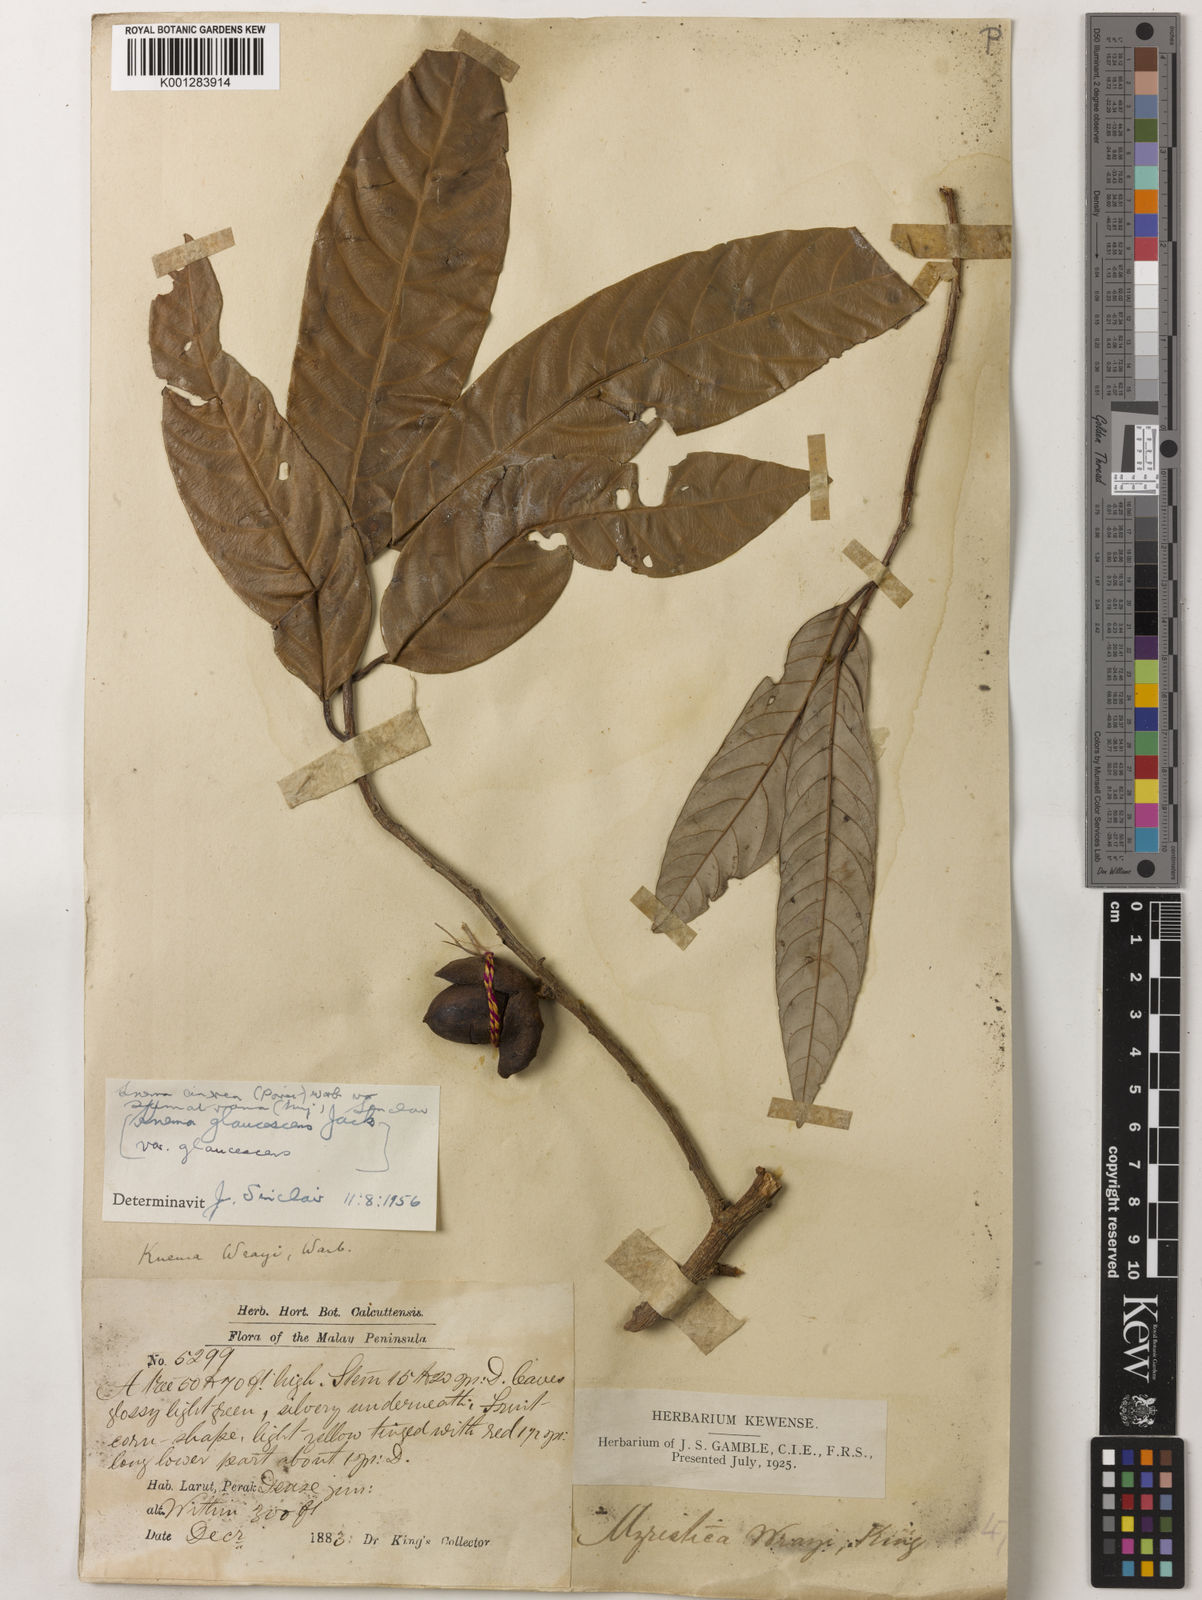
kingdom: Plantae
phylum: Tracheophyta
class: Magnoliopsida
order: Magnoliales
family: Myristicaceae
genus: Knema
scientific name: Knema
